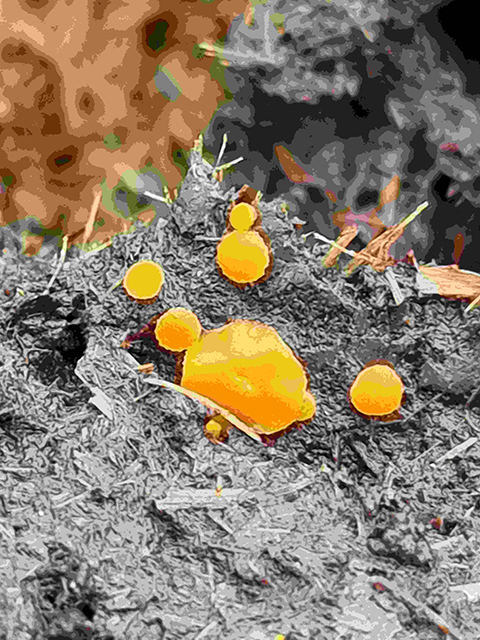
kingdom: Fungi
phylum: Ascomycota
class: Pezizomycetes
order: Pezizales
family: Pyronemataceae
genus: Cheilymenia
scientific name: Cheilymenia granulata
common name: møgbæger
